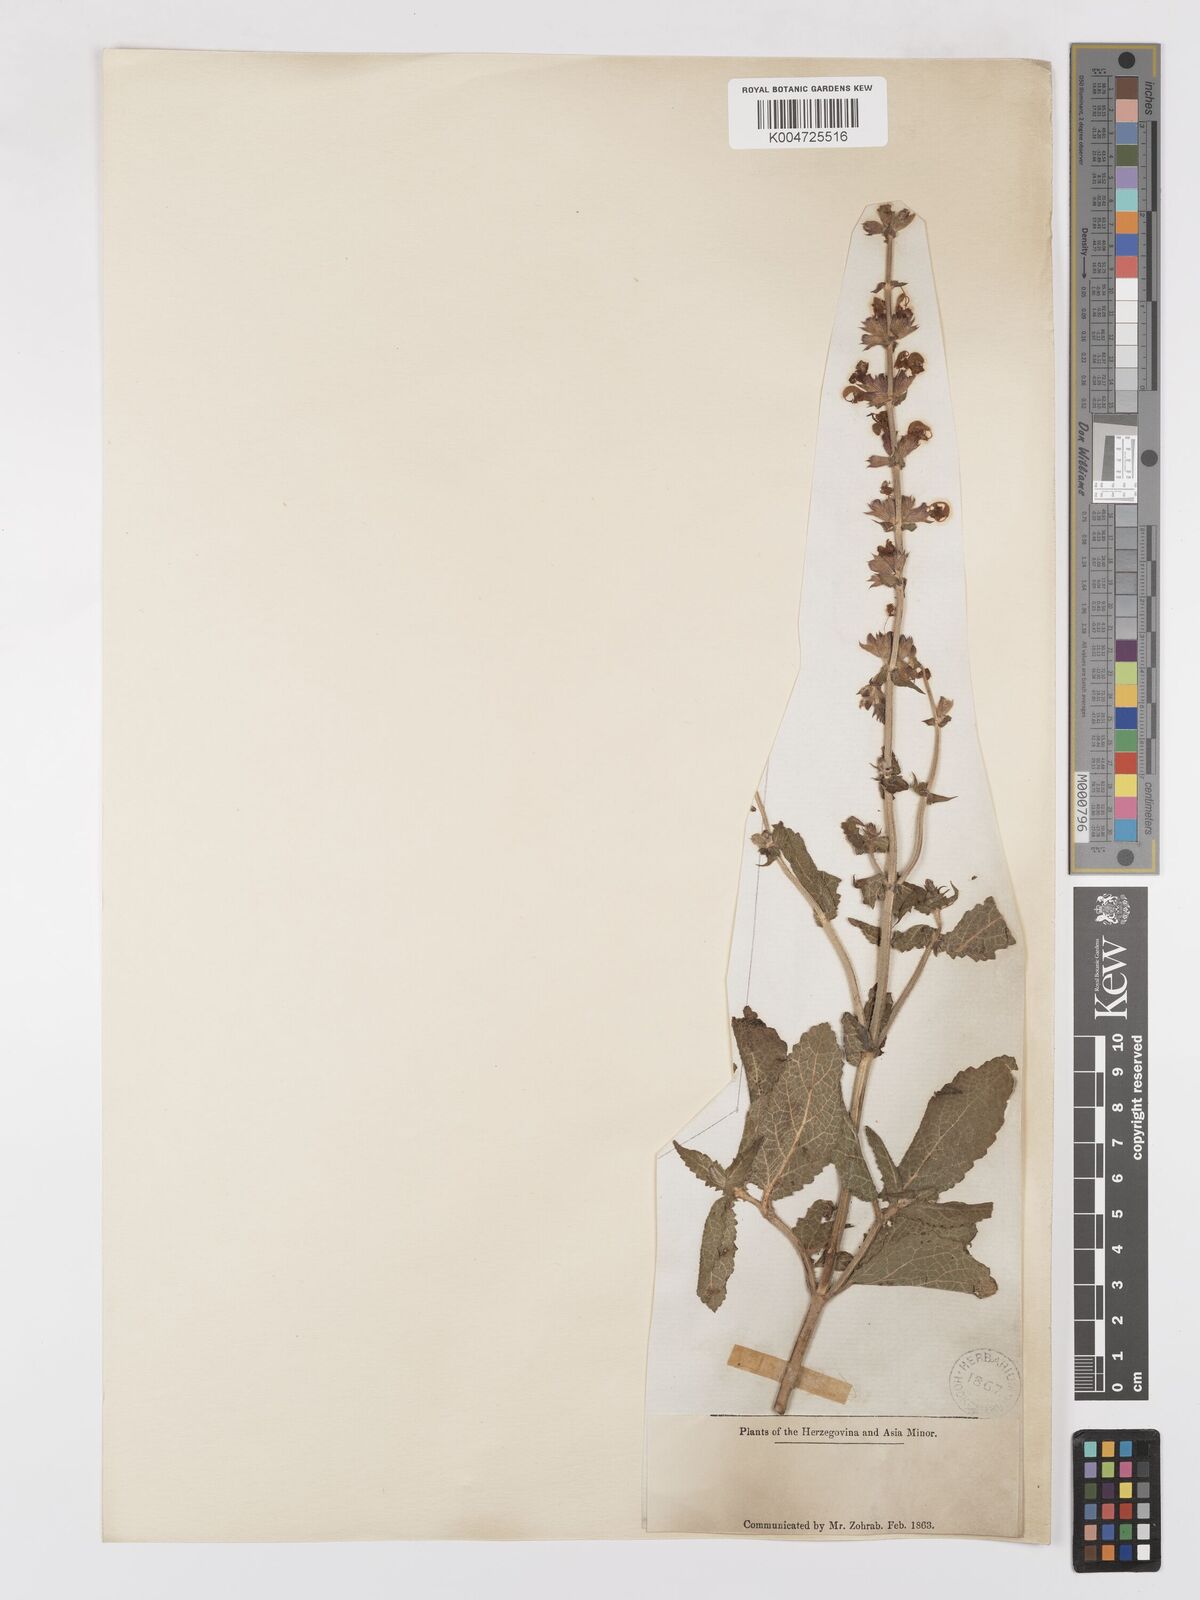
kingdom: Plantae
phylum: Tracheophyta
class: Magnoliopsida
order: Lamiales
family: Lamiaceae
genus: Salvia
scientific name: Salvia
